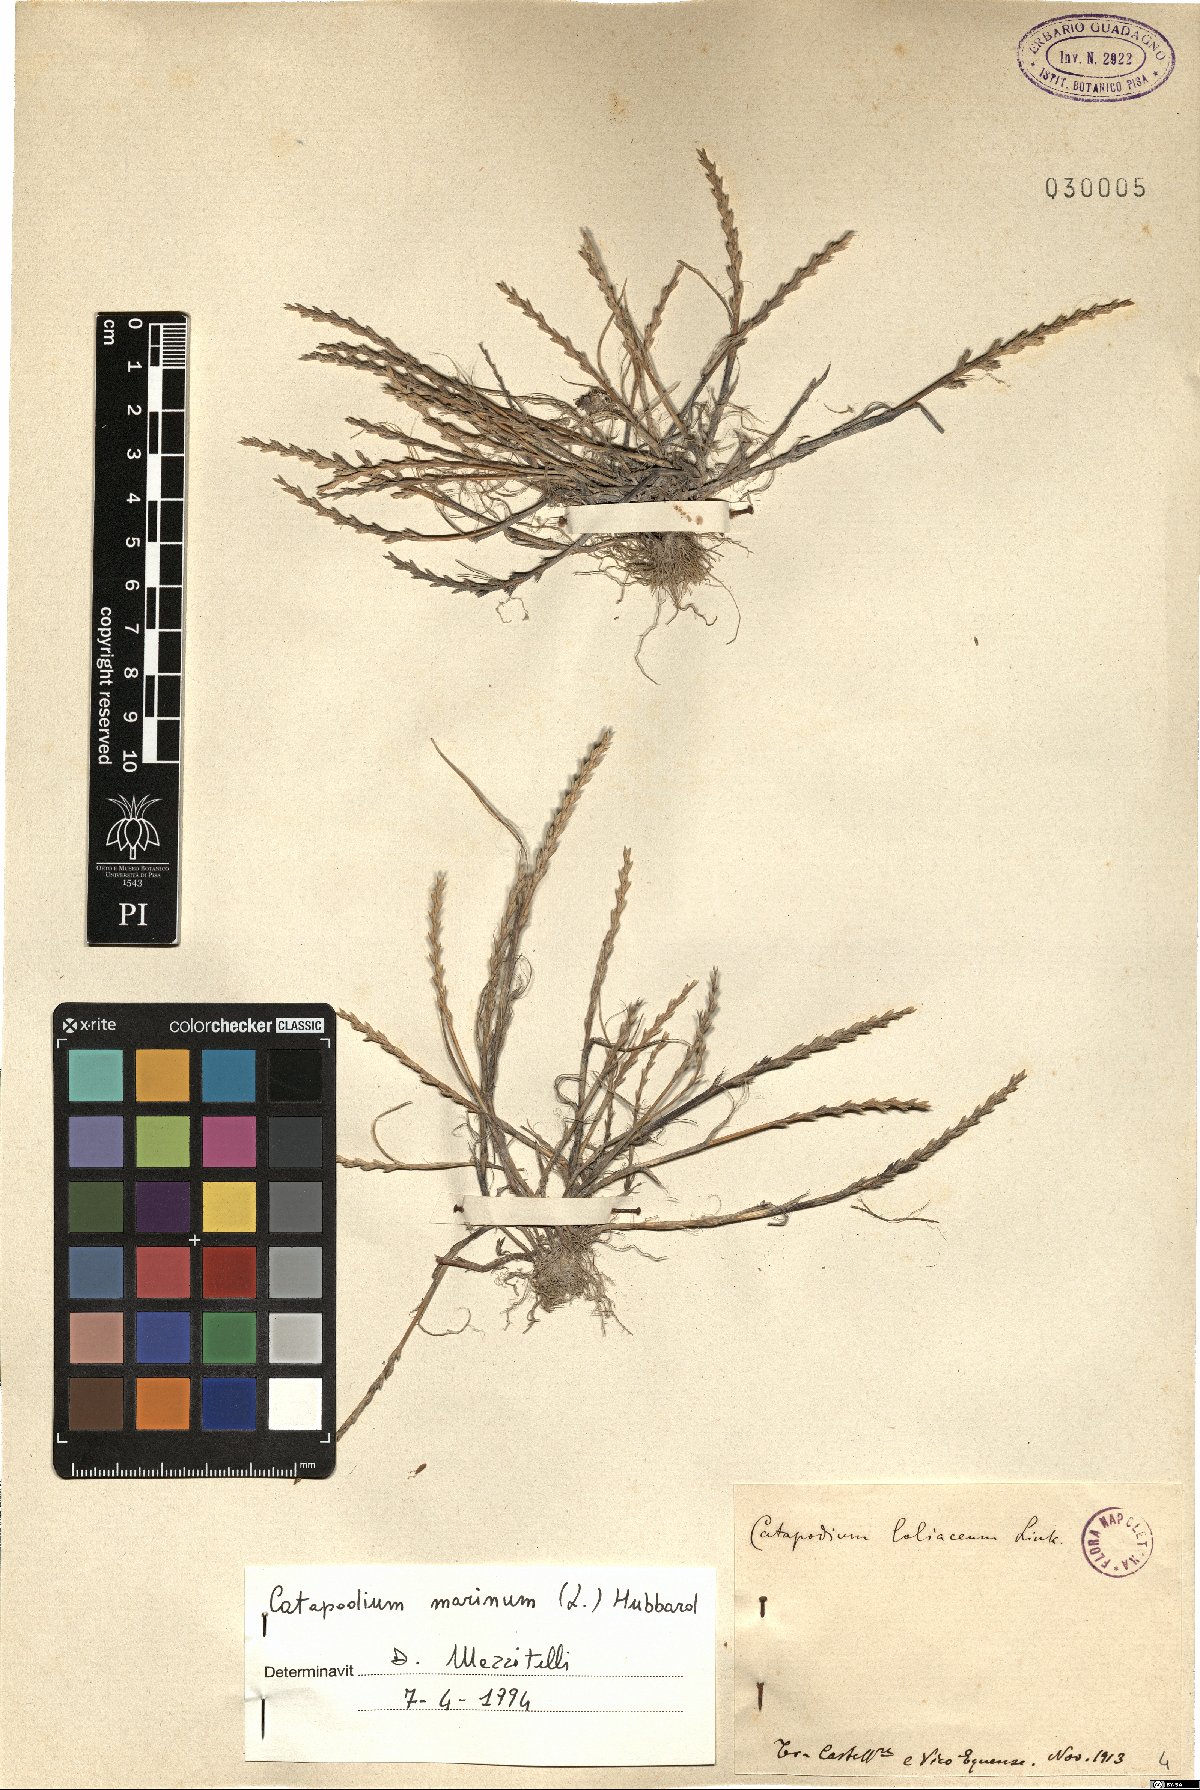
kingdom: Plantae
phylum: Tracheophyta
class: Liliopsida
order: Poales
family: Poaceae
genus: Catapodium
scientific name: Catapodium marinum
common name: Sea fern-grass
